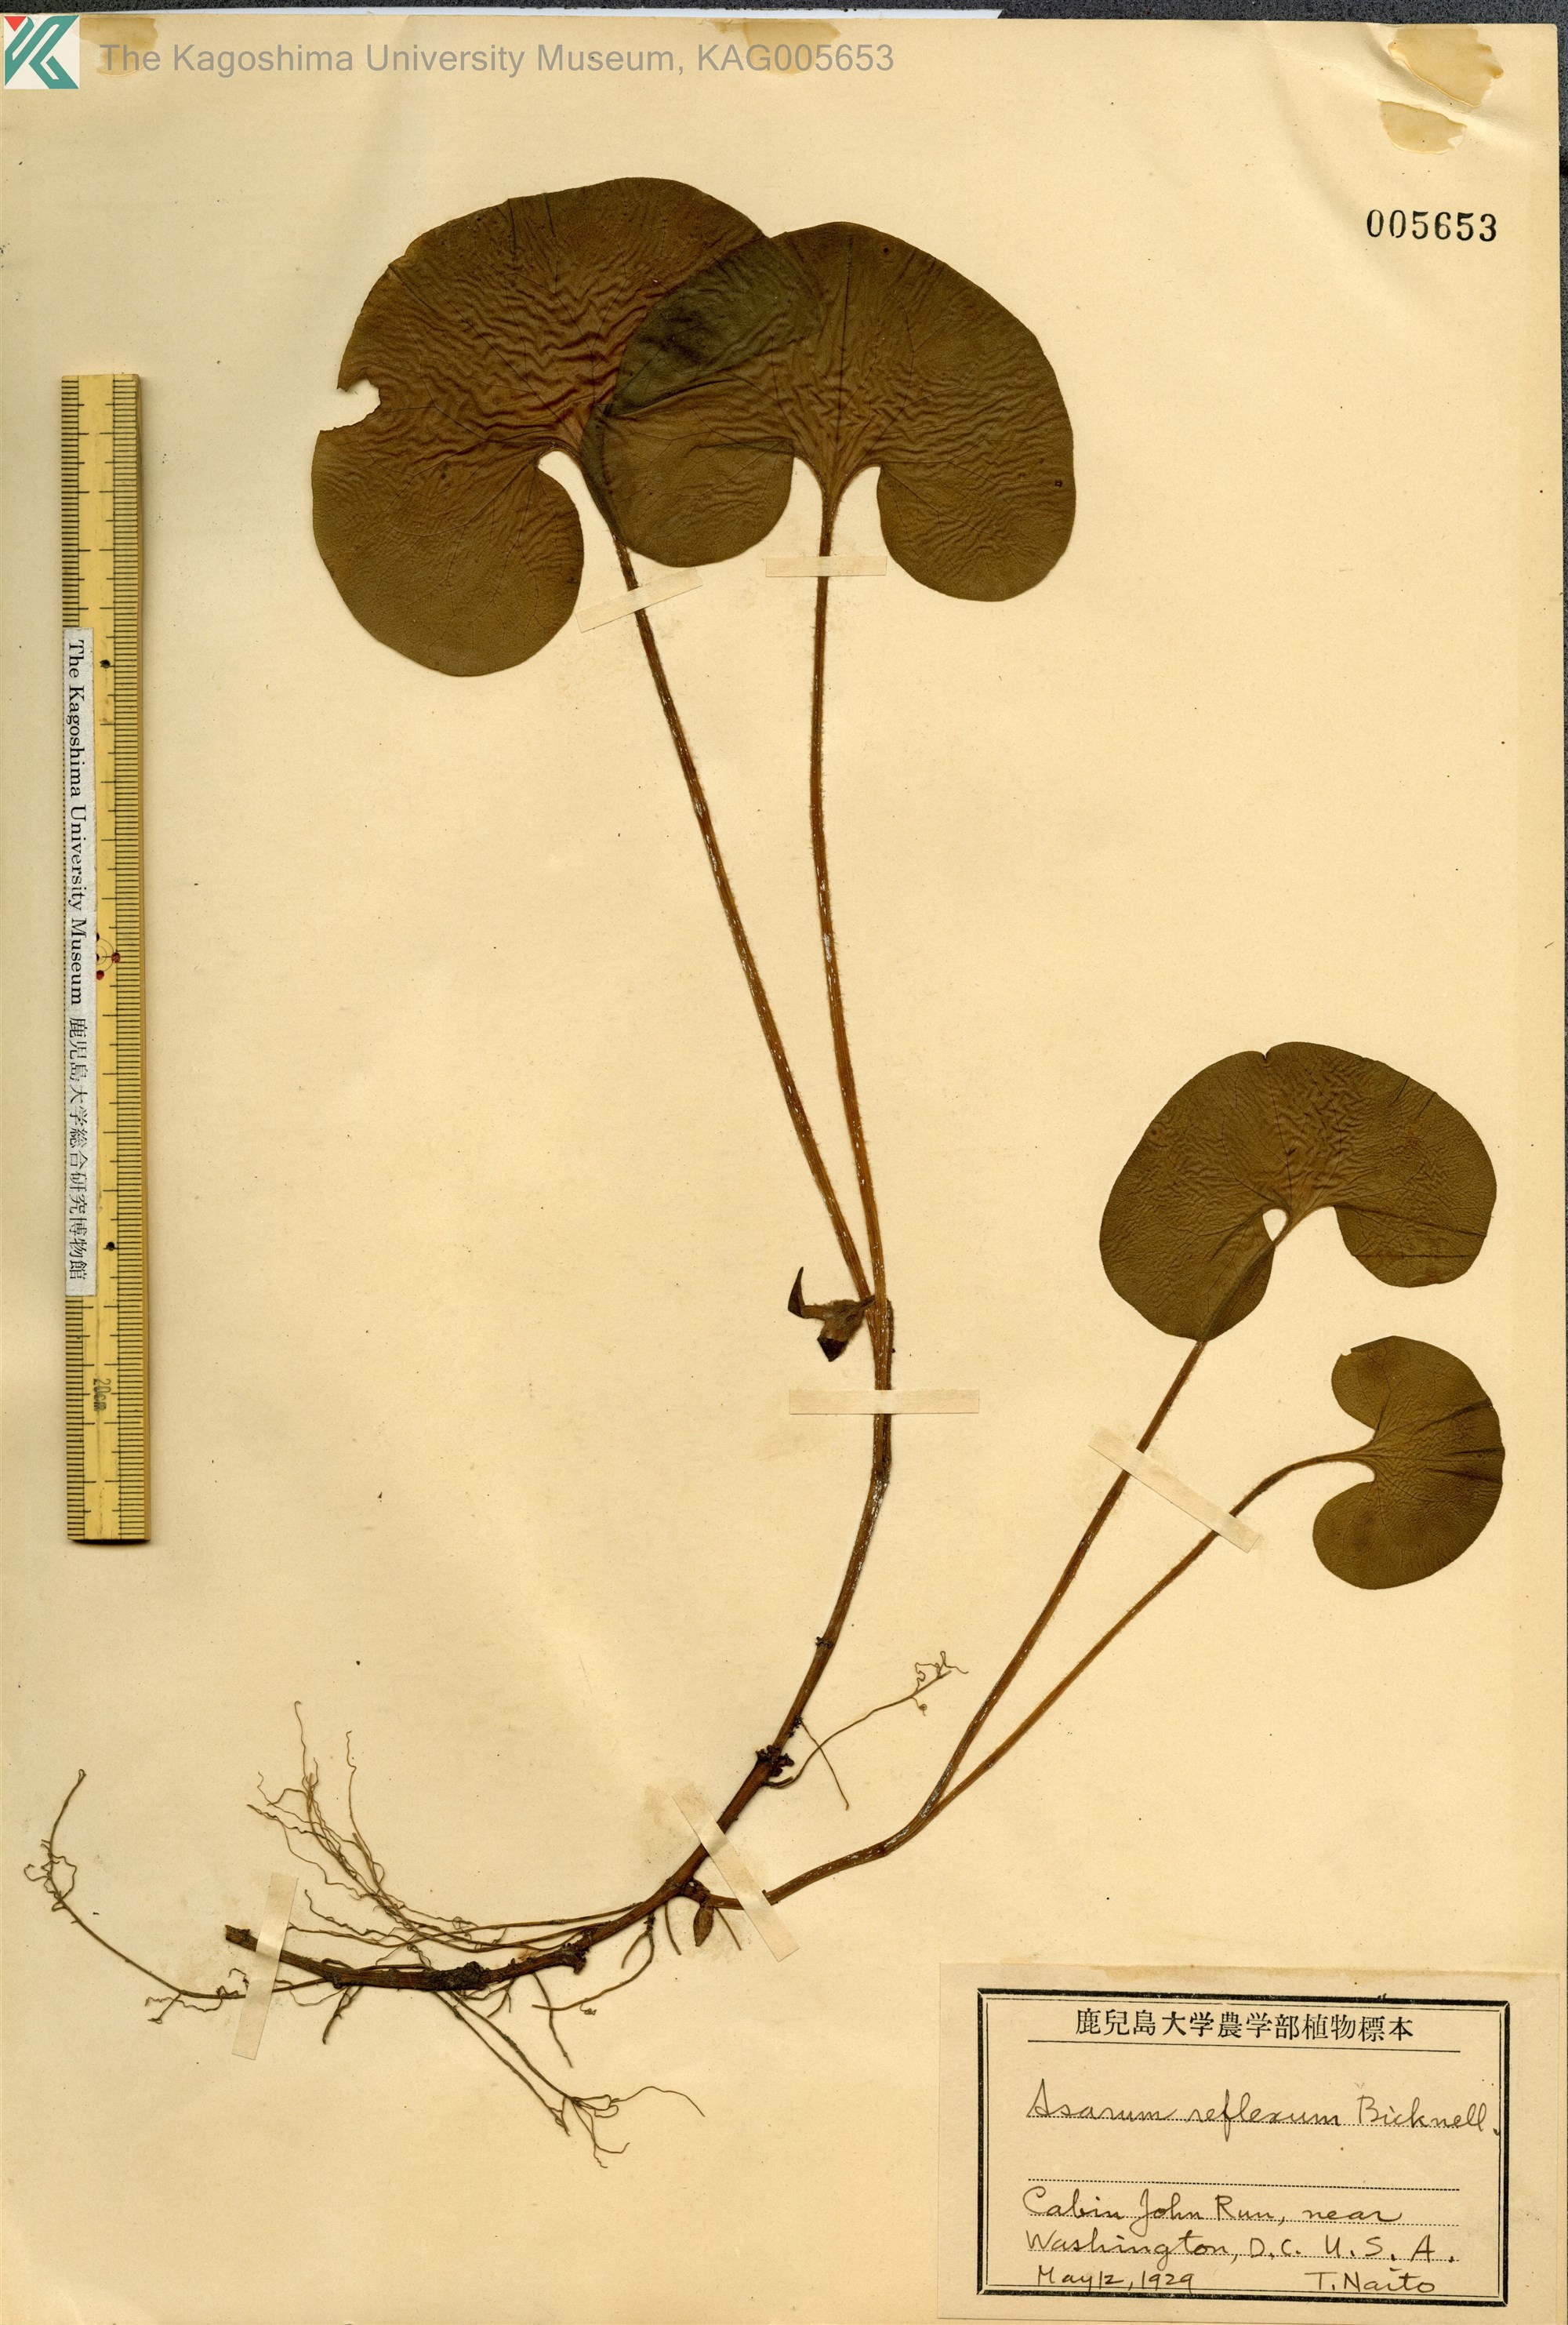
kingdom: Plantae
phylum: Tracheophyta
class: Magnoliopsida
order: Piperales
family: Aristolochiaceae
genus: Asarum
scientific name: Asarum canadense
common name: Wild ginger
